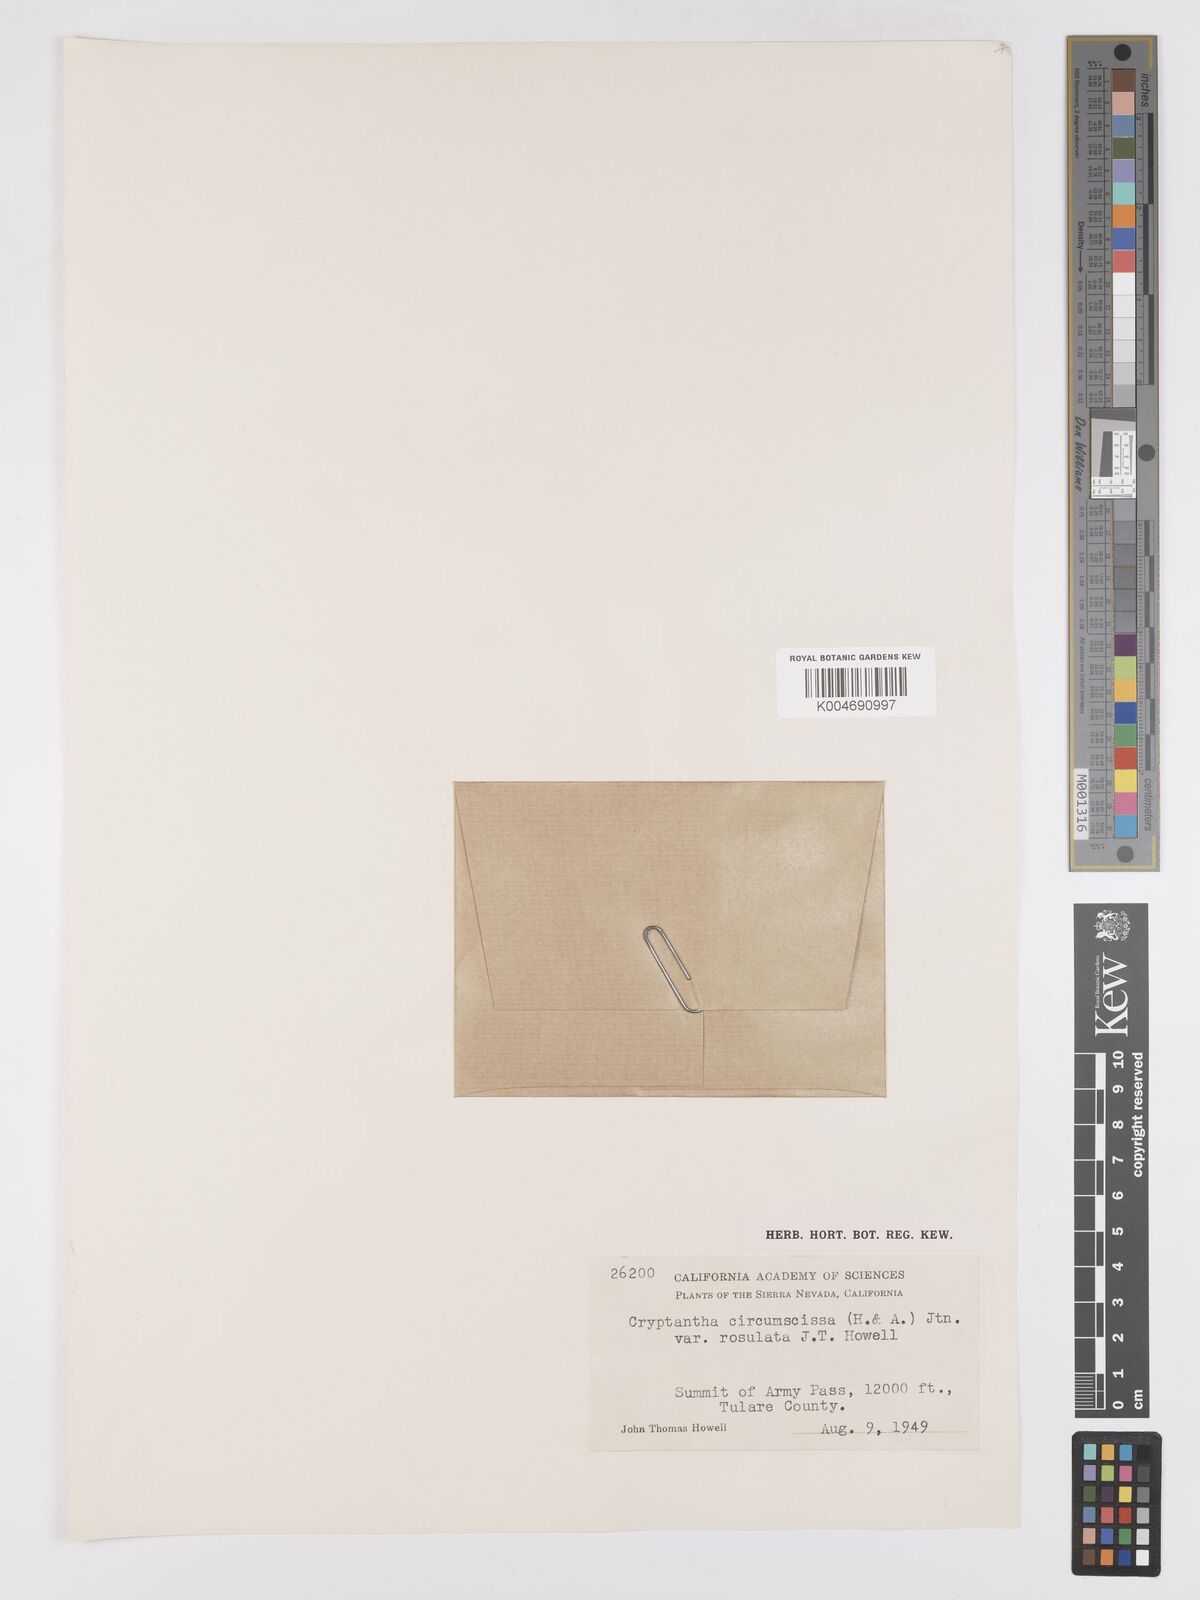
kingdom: Plantae
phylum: Tracheophyta
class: Magnoliopsida
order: Boraginales
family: Boraginaceae
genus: Greeneocharis
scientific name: Greeneocharis circumscissa
